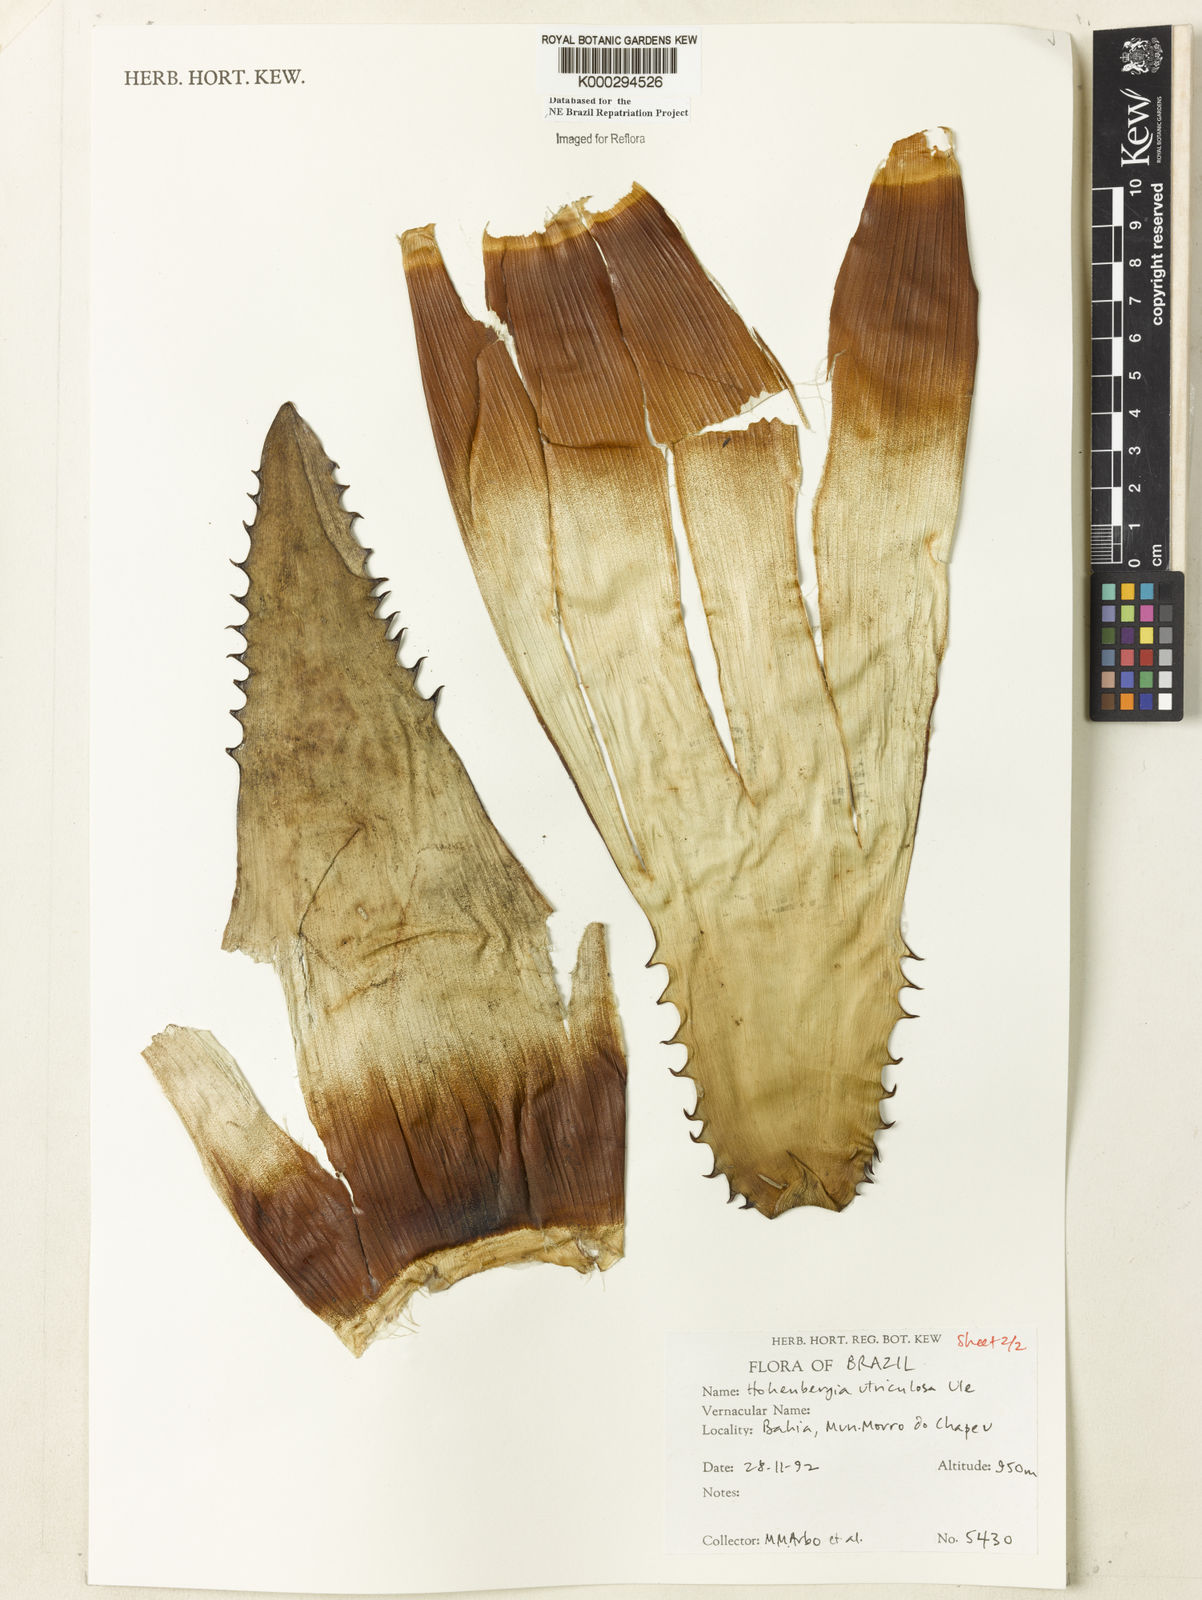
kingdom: Plantae
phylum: Tracheophyta
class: Liliopsida
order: Poales
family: Bromeliaceae
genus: Hohenbergia
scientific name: Hohenbergia utriculosa
